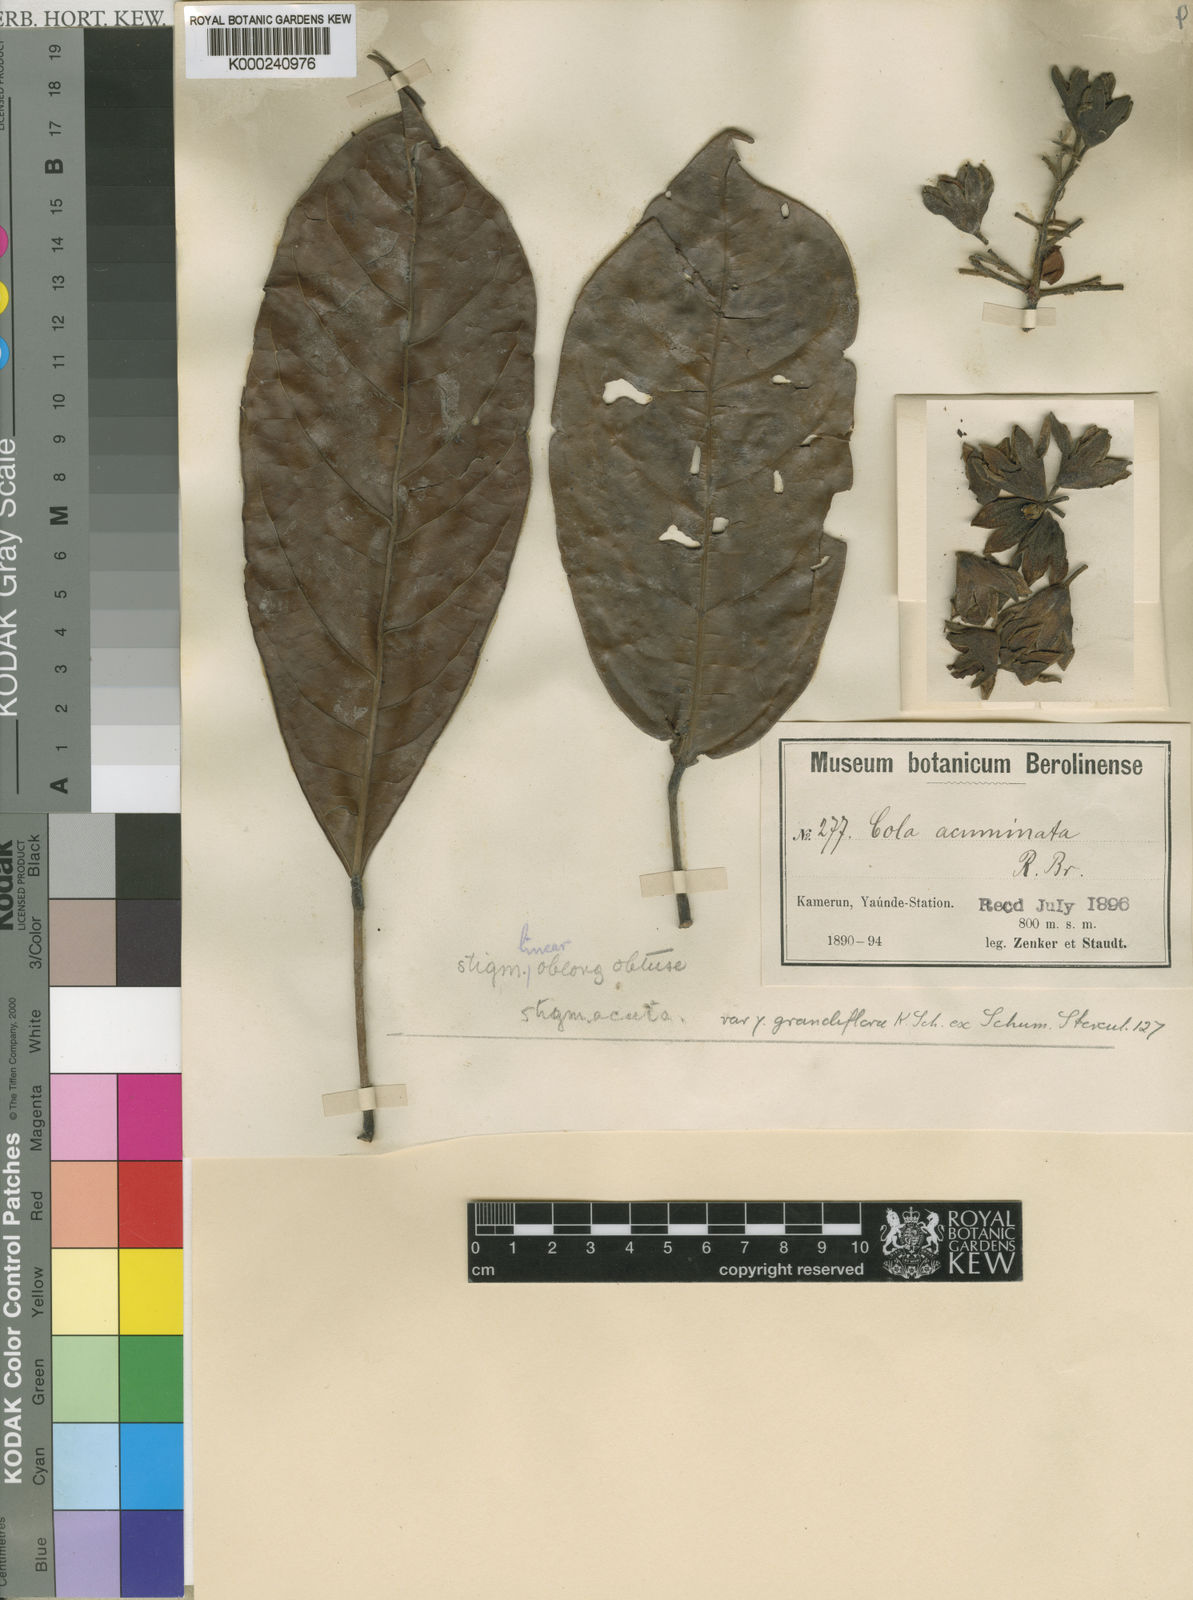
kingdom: Plantae
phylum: Tracheophyta
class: Magnoliopsida
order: Malvales
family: Malvaceae
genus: Cola
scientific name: Cola acuminata
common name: True kola
